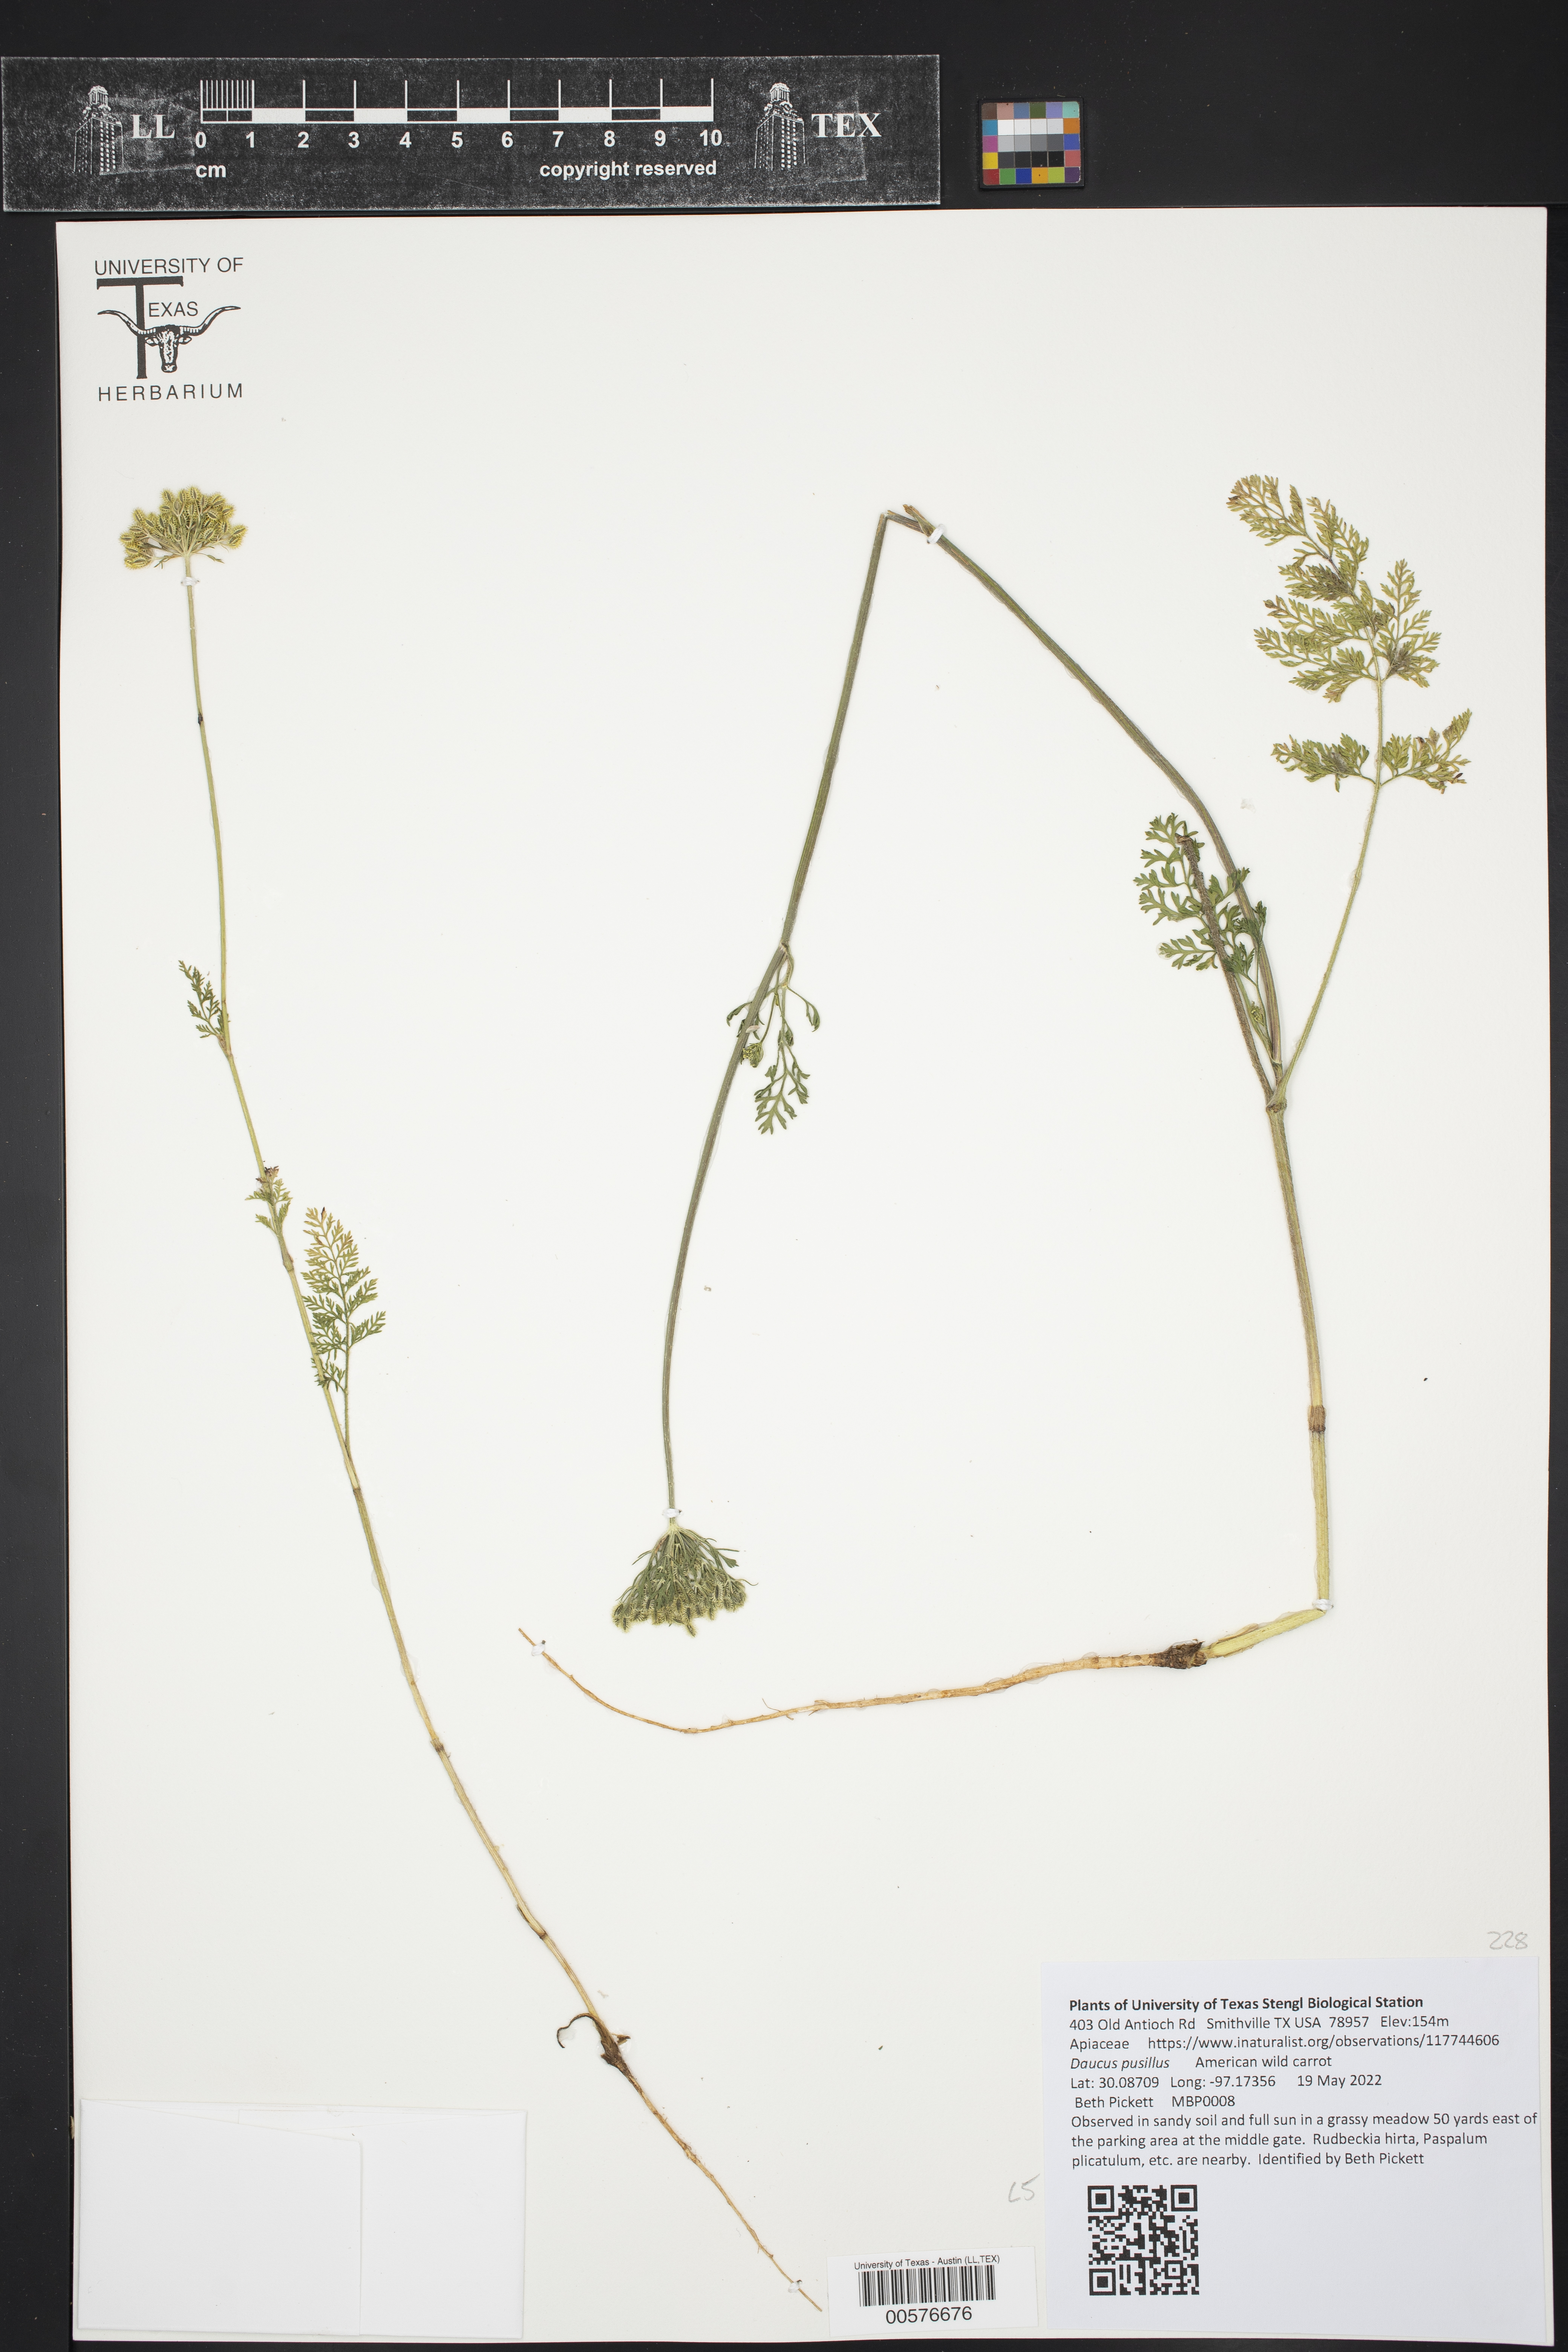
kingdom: Plantae
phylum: Tracheophyta
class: Magnoliopsida
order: Apiales
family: Apiaceae
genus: Daucus
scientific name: Daucus pusillus
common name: Southwest wild carrot
